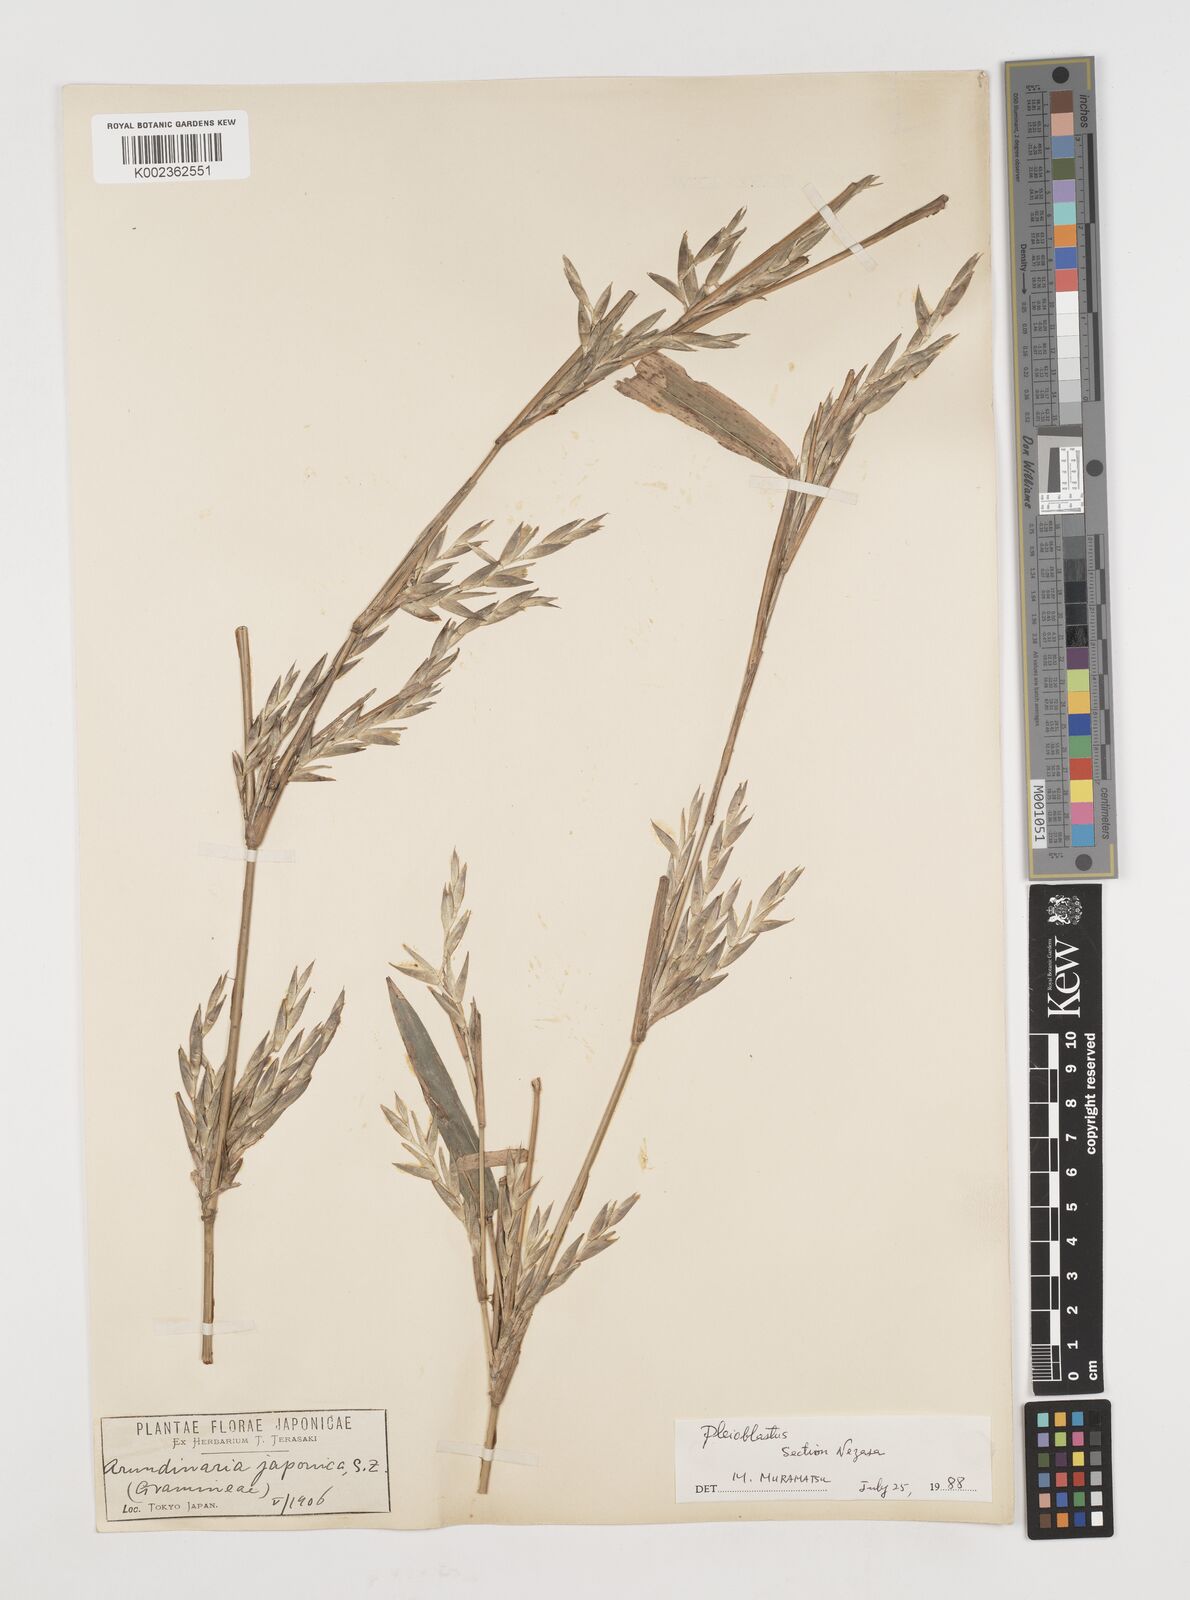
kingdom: Plantae
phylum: Tracheophyta
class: Liliopsida
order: Poales
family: Poaceae
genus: Pseudosasa
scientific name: Pseudosasa japonica
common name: Arrow bamboo
